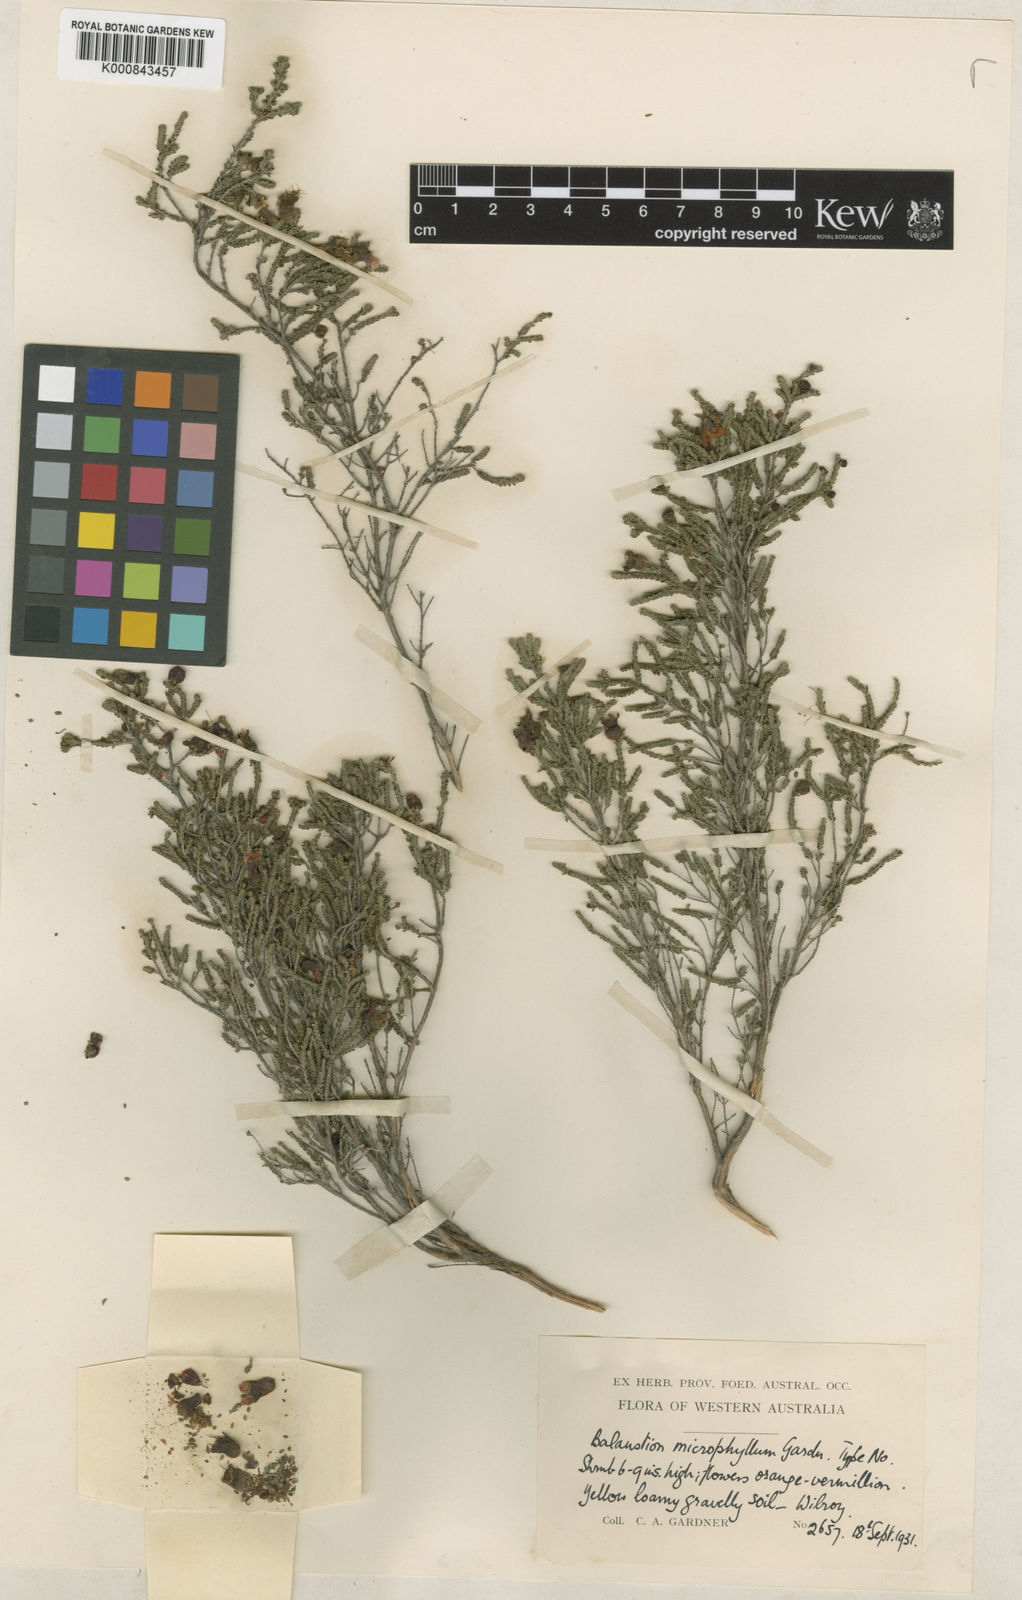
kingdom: Plantae
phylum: Tracheophyta
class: Magnoliopsida
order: Myrtales
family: Myrtaceae
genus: Cheyniana
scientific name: Cheyniana microphylla
